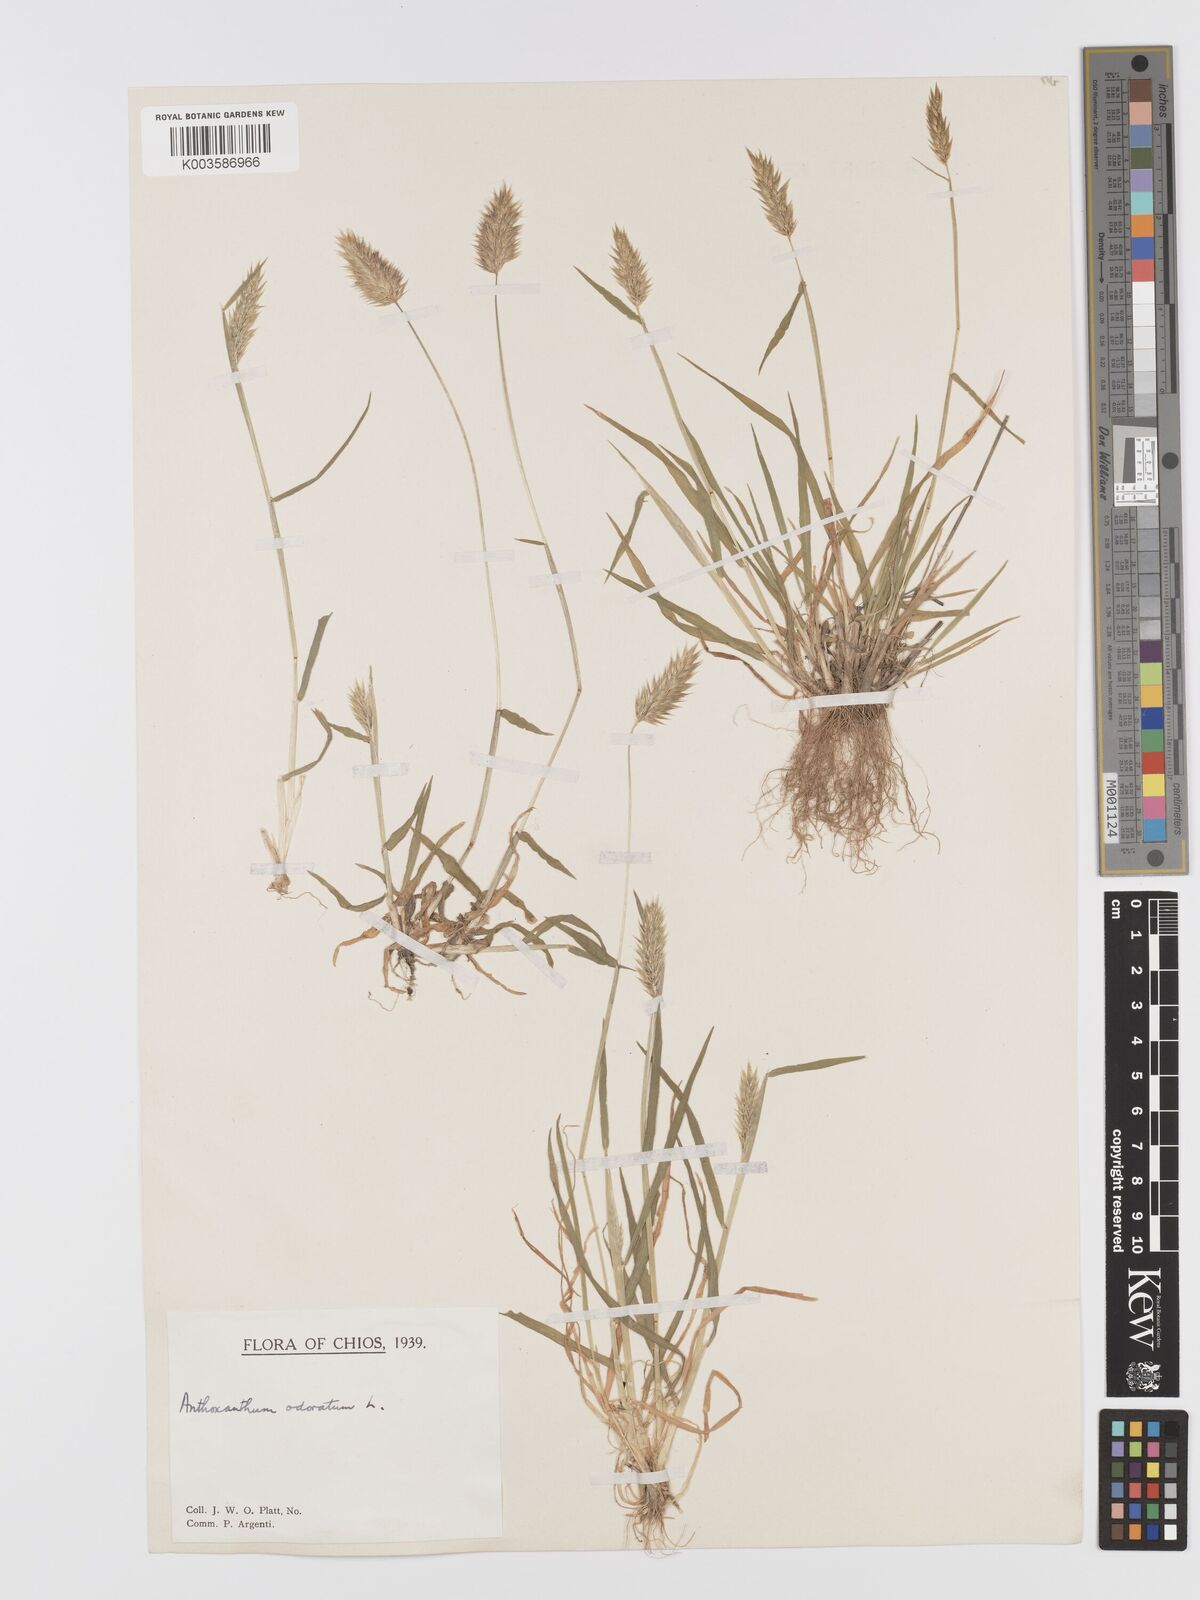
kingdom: Plantae
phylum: Tracheophyta
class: Liliopsida
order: Poales
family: Poaceae
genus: Anthoxanthum
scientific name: Anthoxanthum odoratum
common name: Sweet vernalgrass
